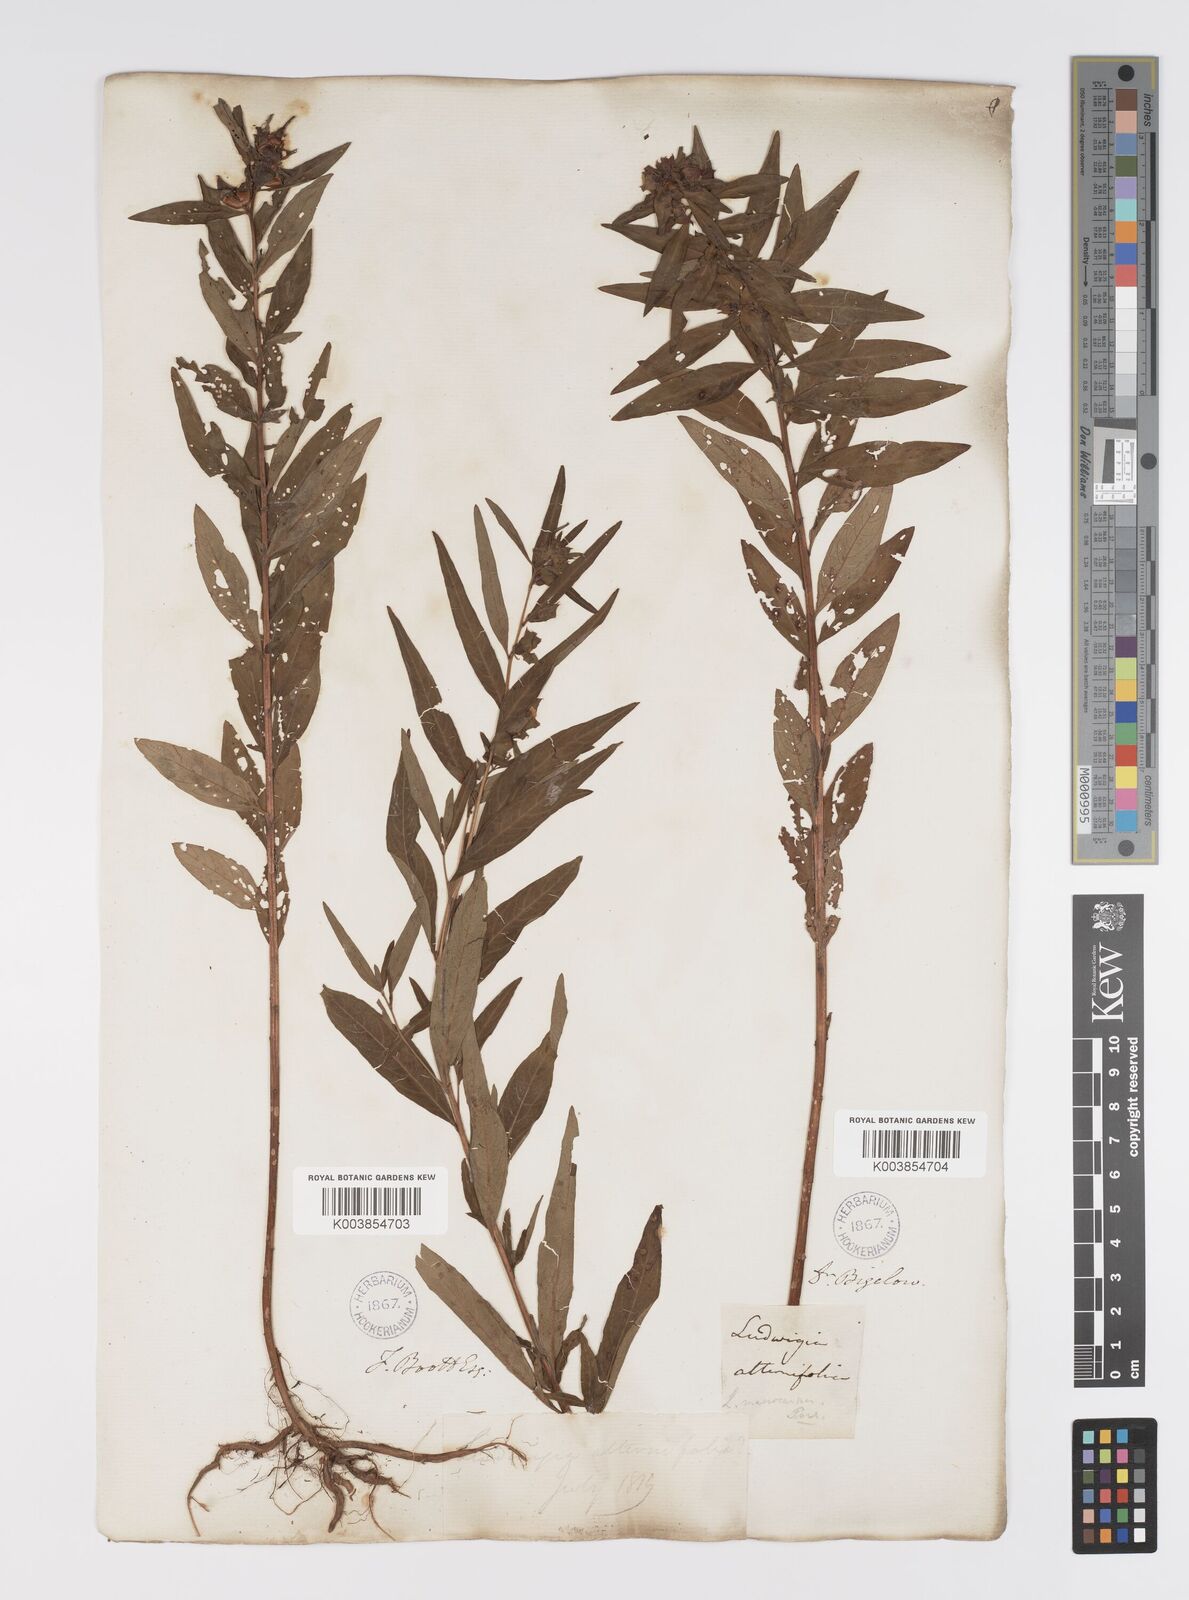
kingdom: Plantae
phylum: Tracheophyta
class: Magnoliopsida
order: Myrtales
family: Onagraceae
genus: Ludwigia
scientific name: Ludwigia alternifolia
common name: Rattlebox
